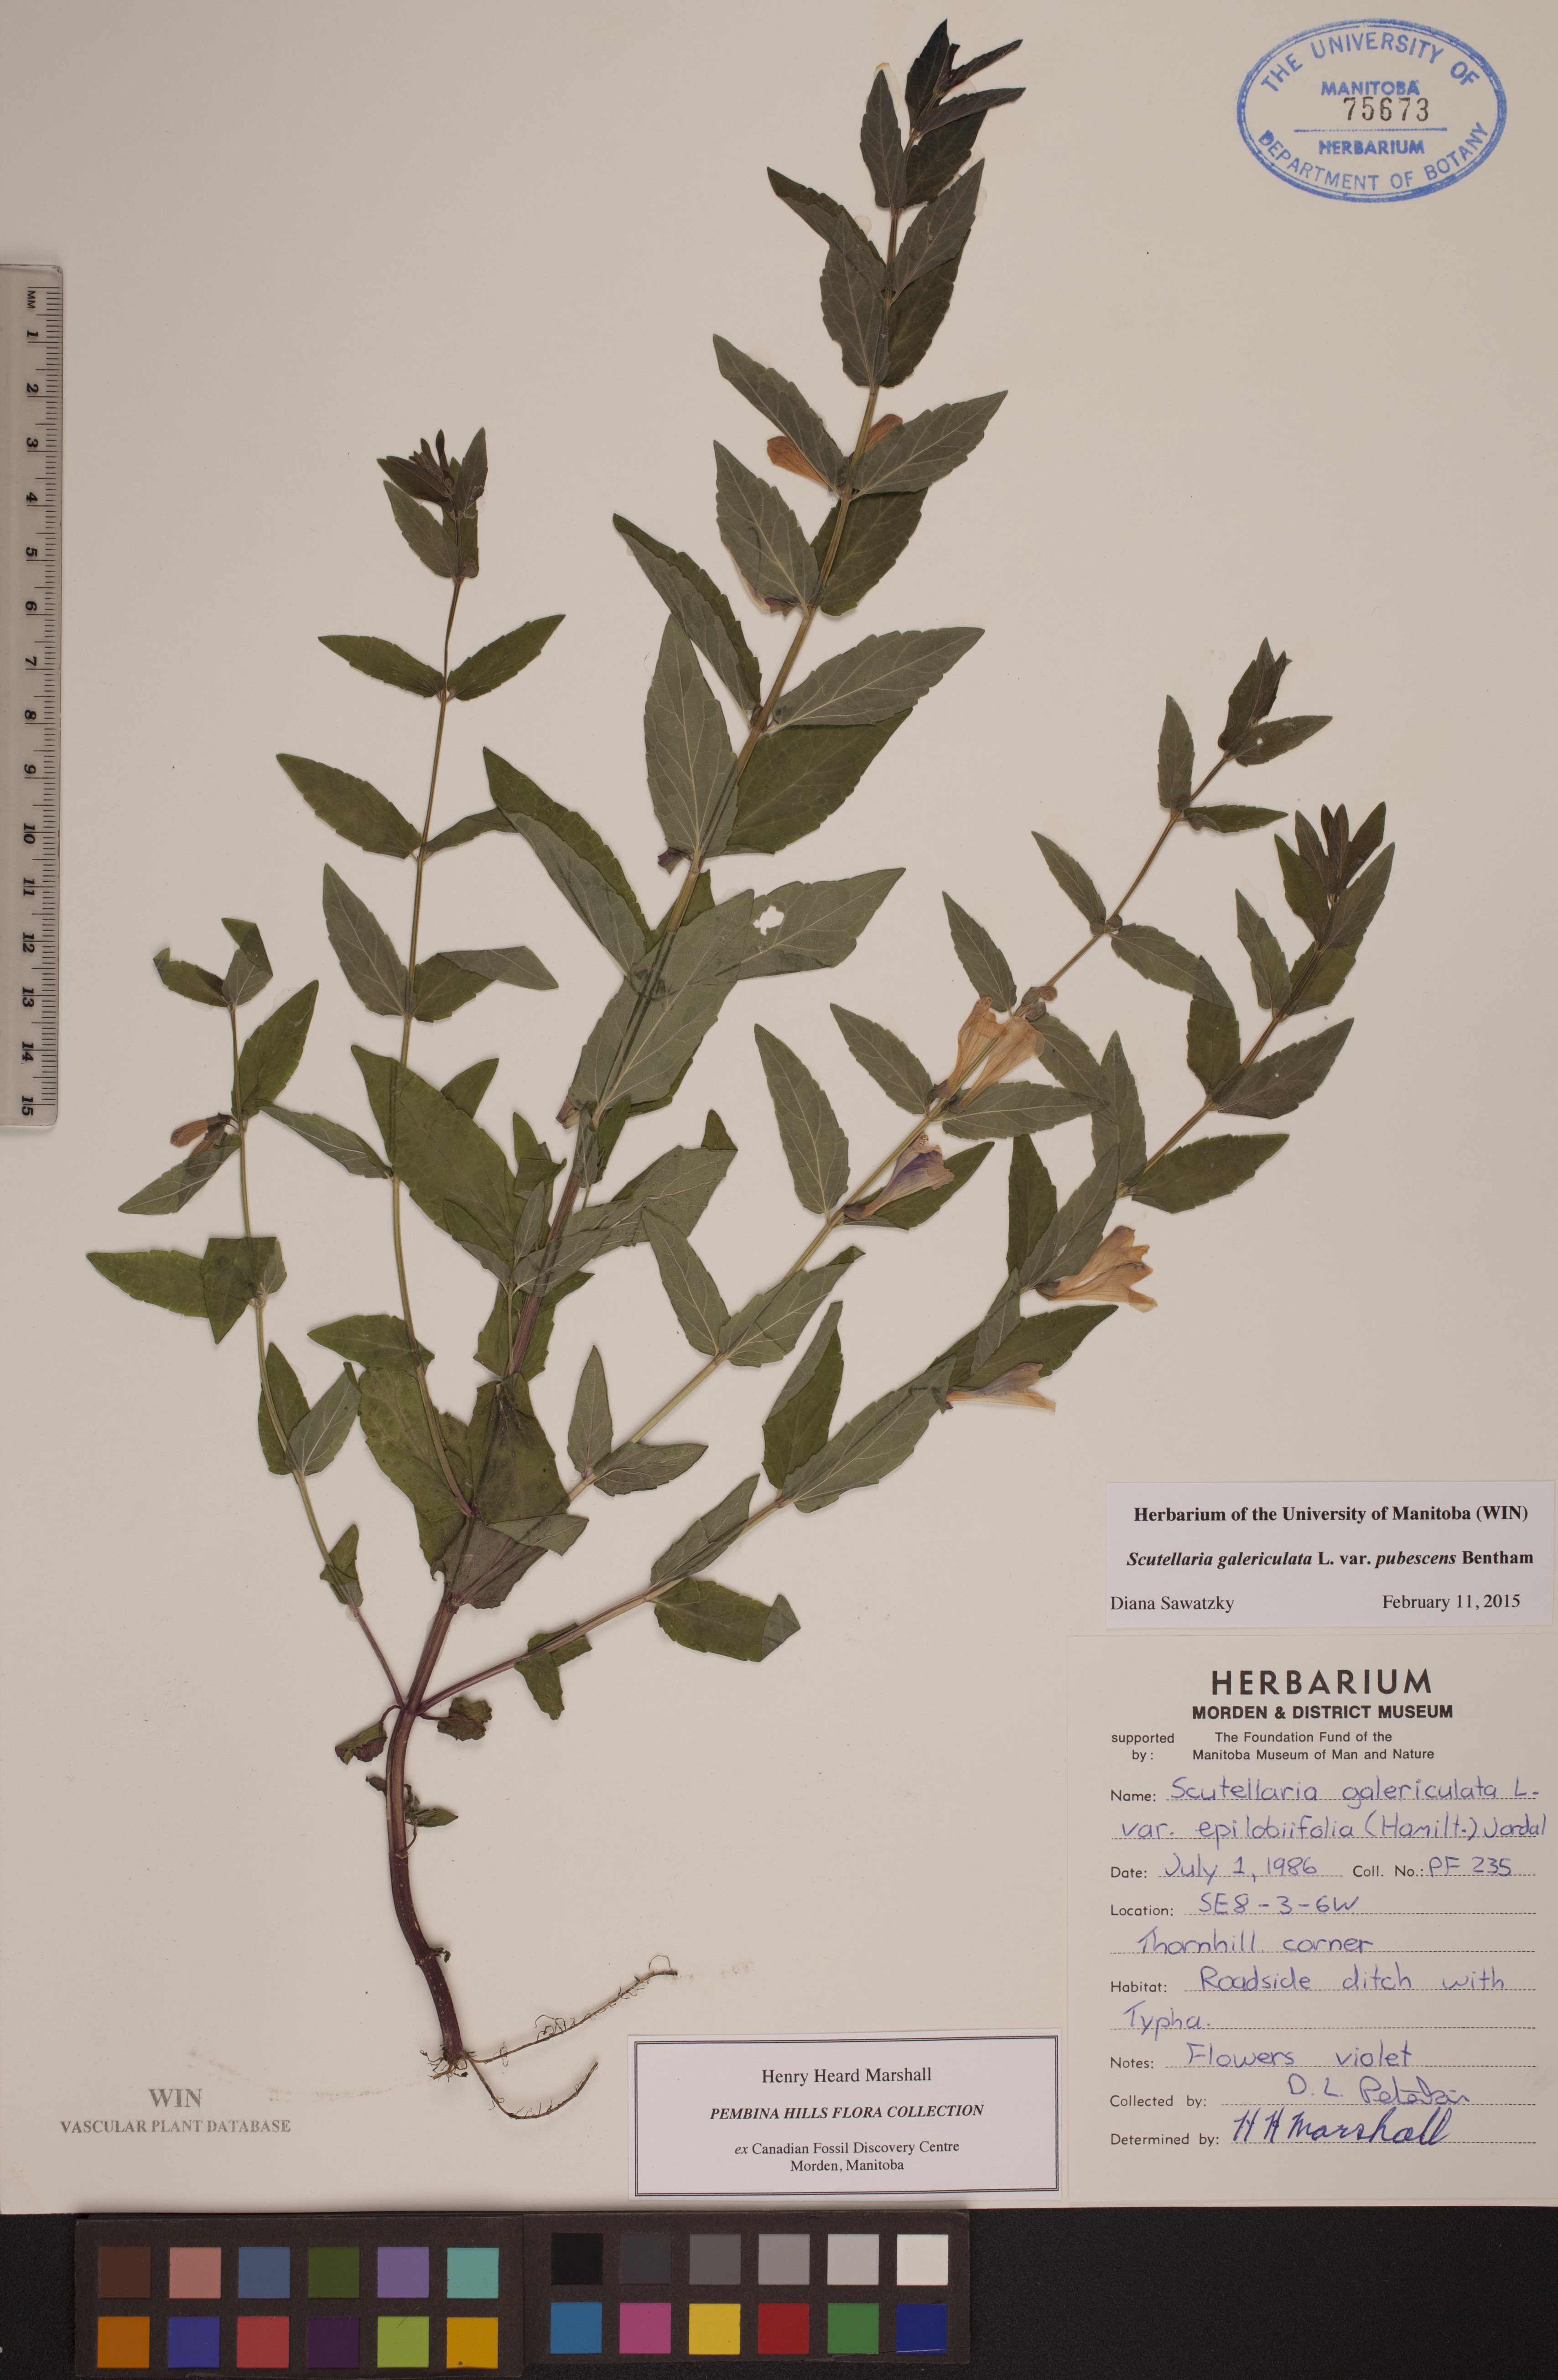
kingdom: Plantae
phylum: Tracheophyta
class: Magnoliopsida
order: Lamiales
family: Lamiaceae
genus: Scutellaria
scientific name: Scutellaria nicholsonii
